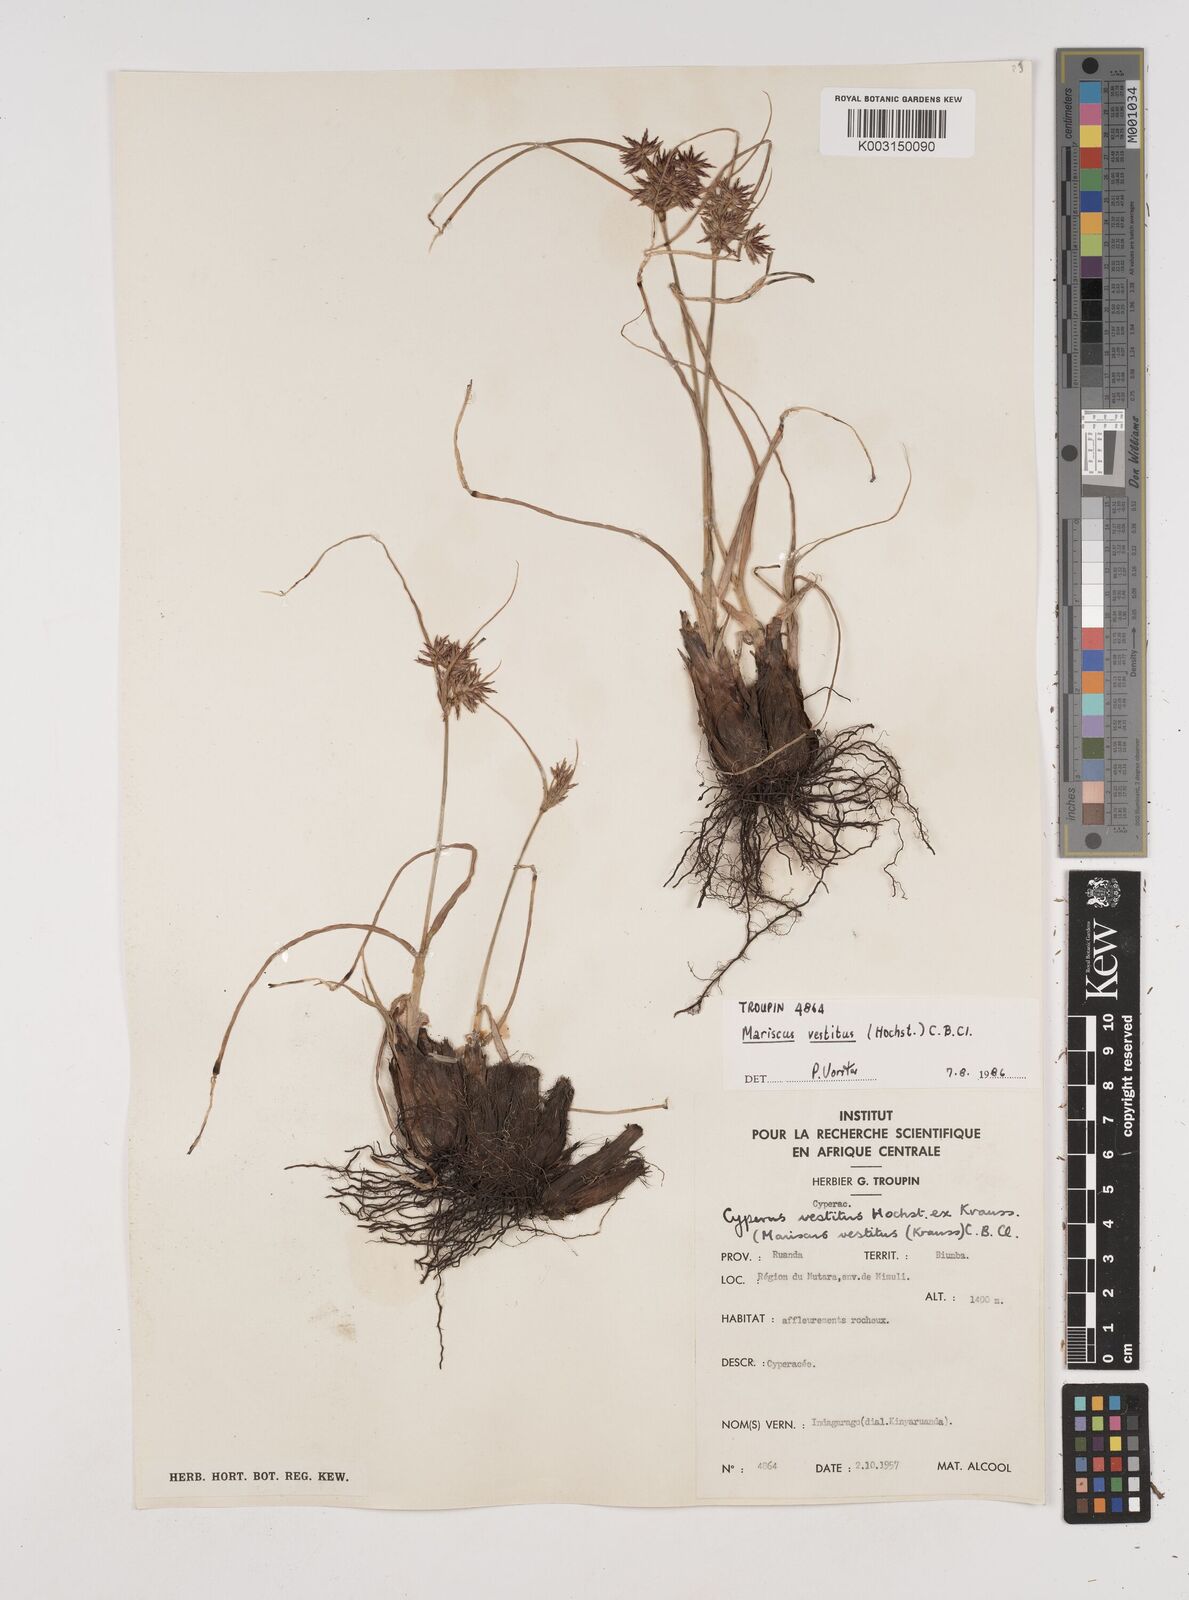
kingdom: Plantae
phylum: Tracheophyta
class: Liliopsida
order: Poales
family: Cyperaceae
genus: Cyperus
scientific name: Cyperus vestitus
